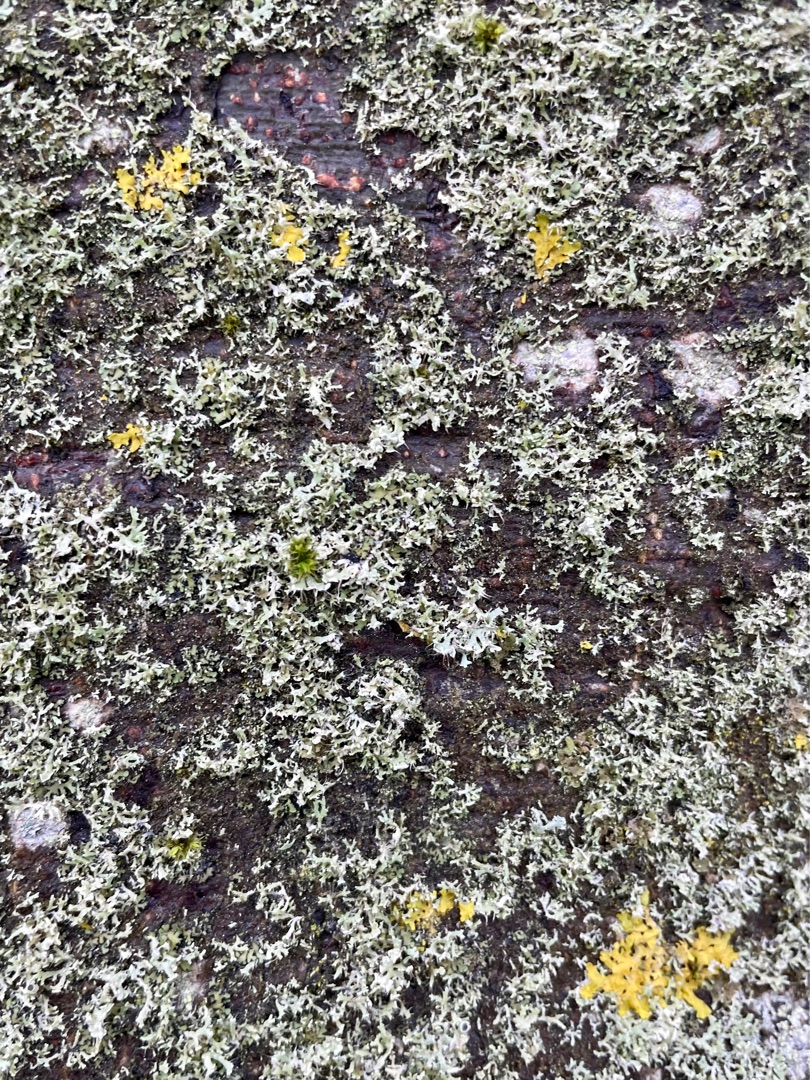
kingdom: Fungi
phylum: Ascomycota
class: Lecanoromycetes
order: Caliciales
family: Physciaceae
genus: Physcia
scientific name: Physcia tenella
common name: Spæd rosetlav
